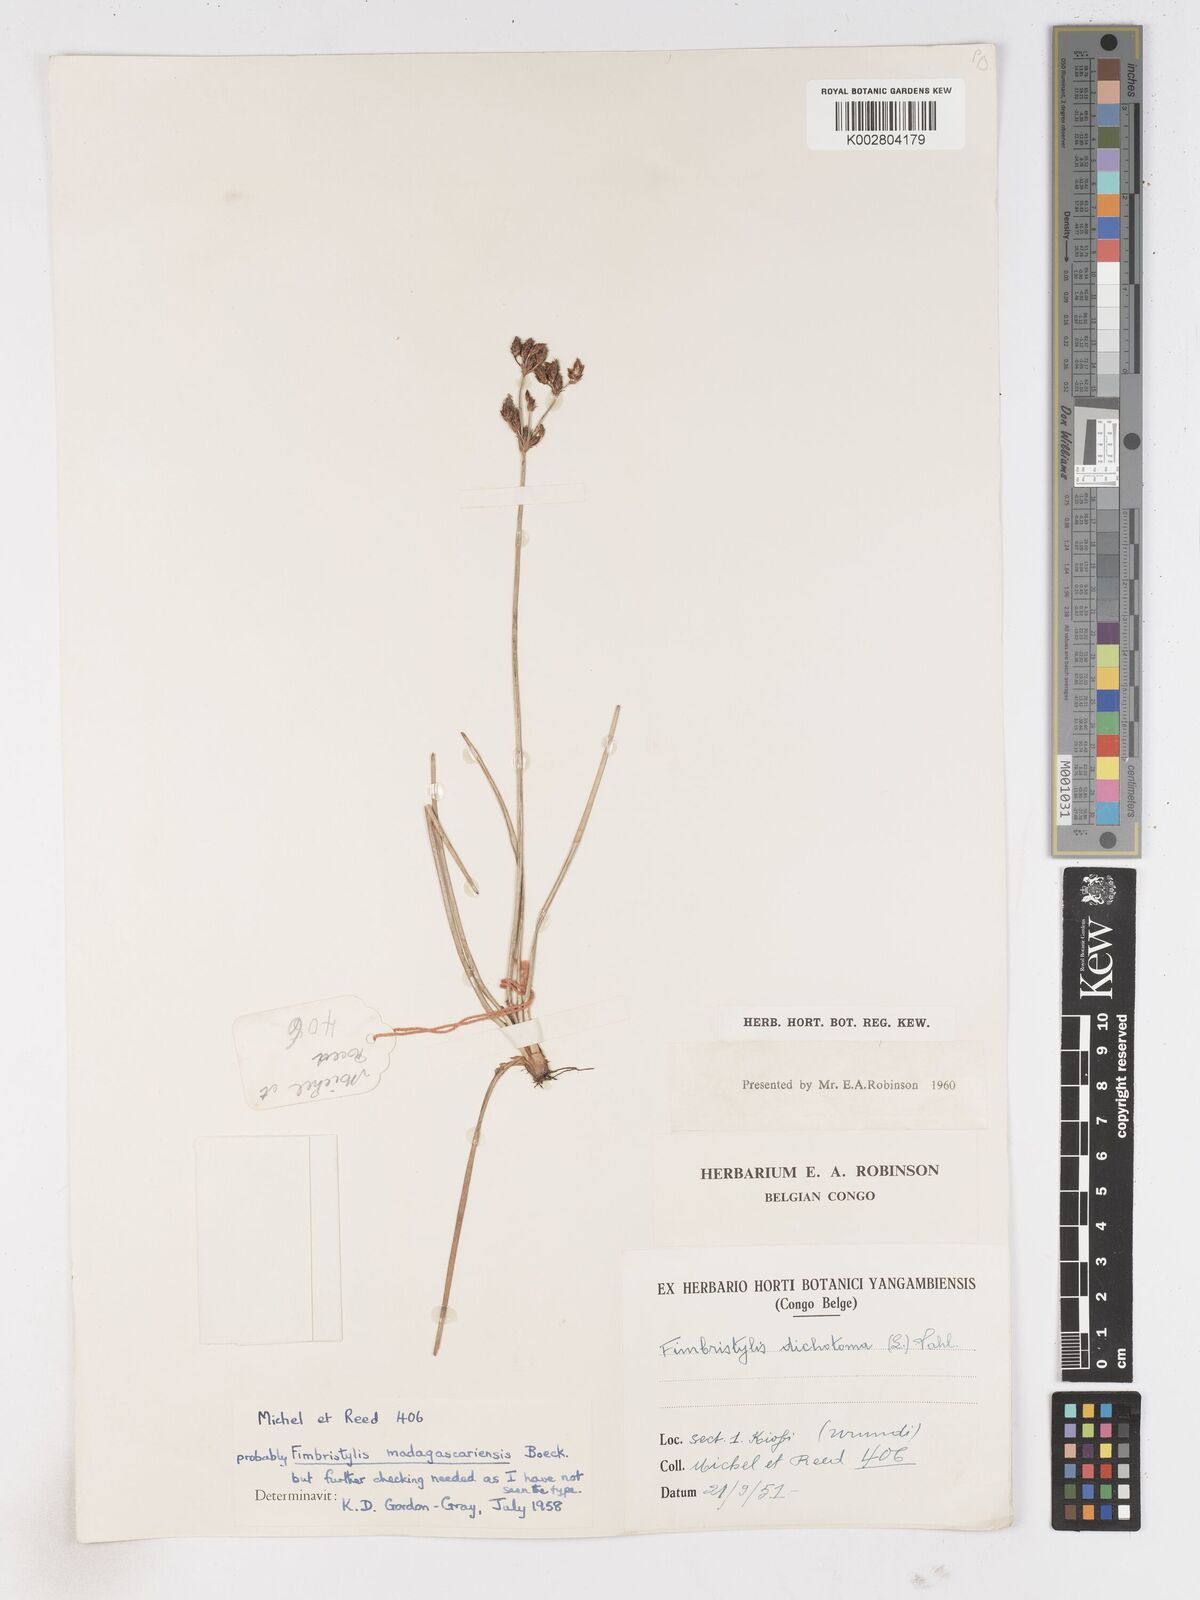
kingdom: Plantae
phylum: Tracheophyta
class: Liliopsida
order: Poales
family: Cyperaceae
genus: Fimbristylis
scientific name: Fimbristylis madagascariensis
